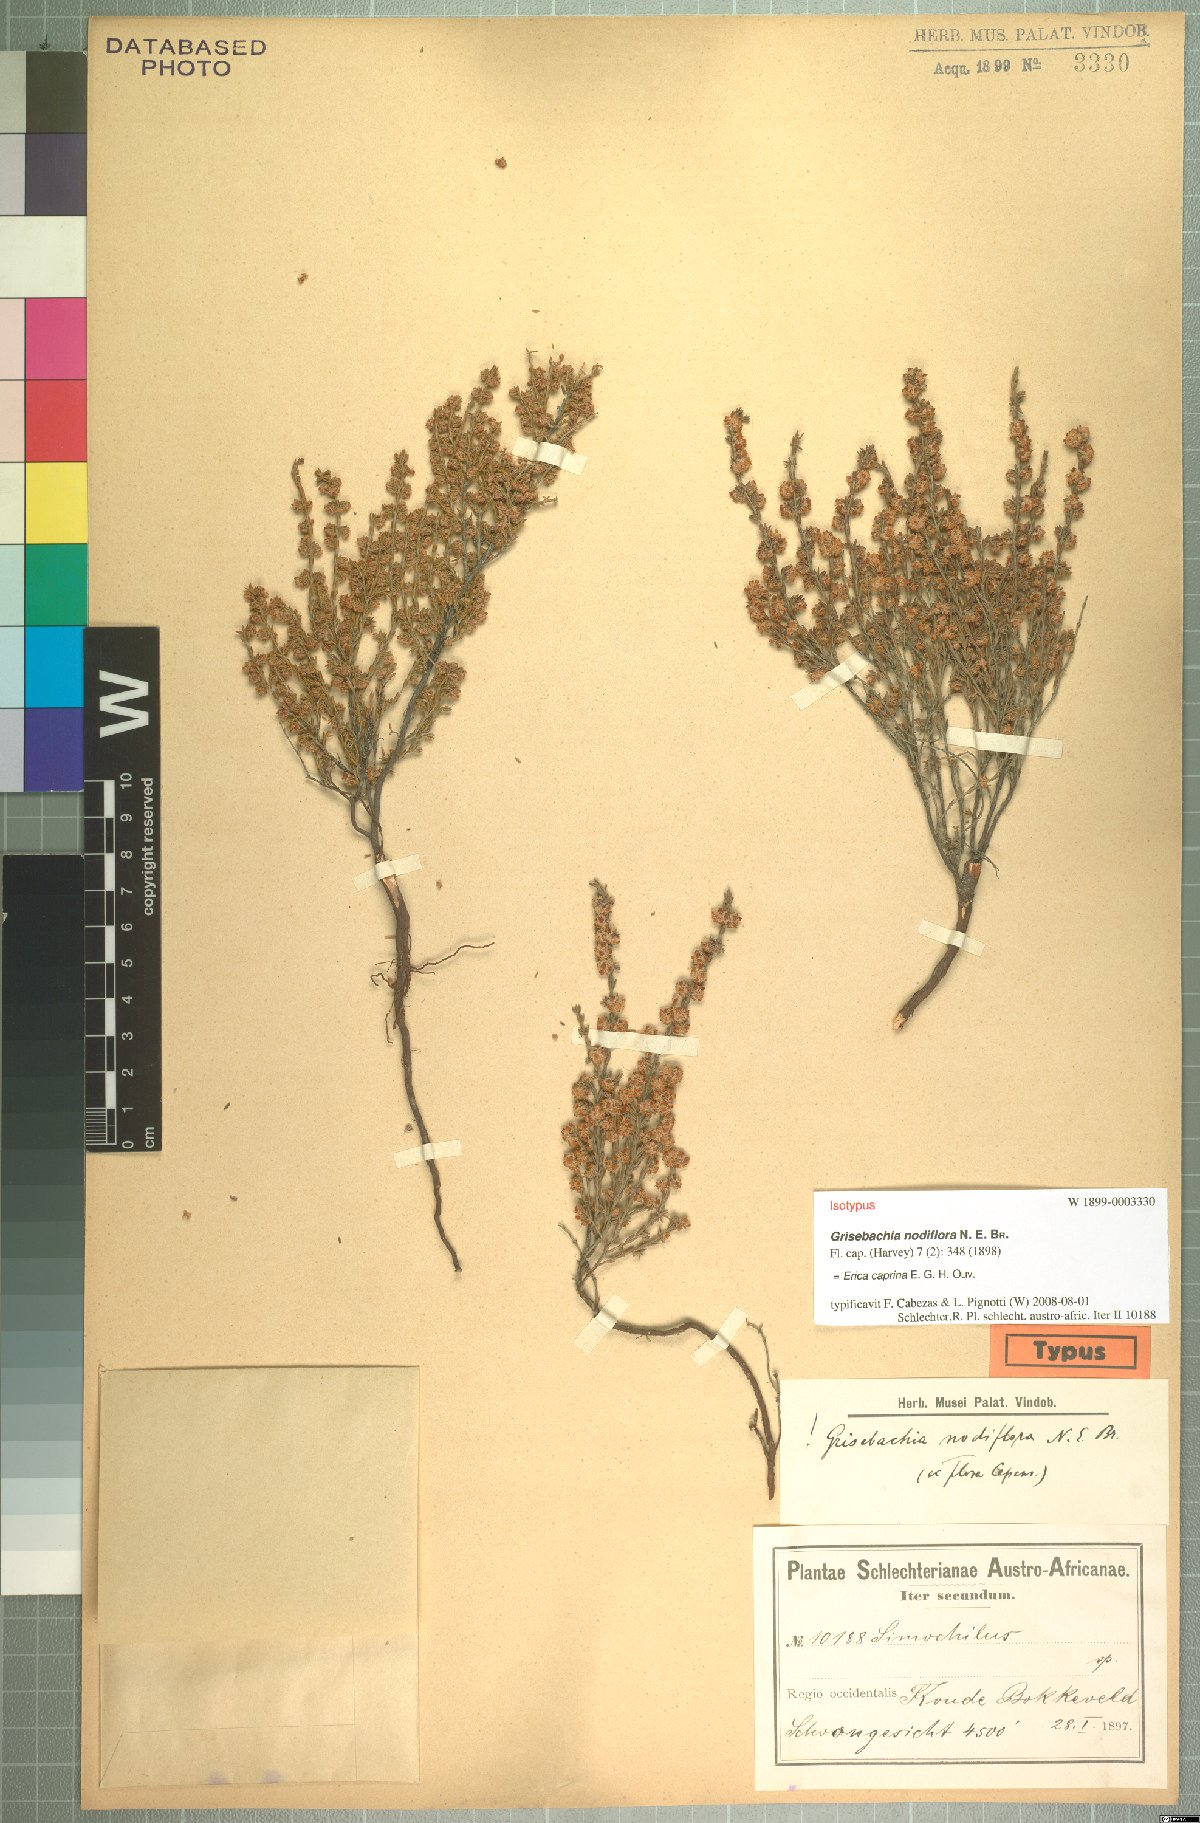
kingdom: Plantae
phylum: Tracheophyta
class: Magnoliopsida
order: Ericales
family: Ericaceae
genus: Erica
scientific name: Erica caprina
